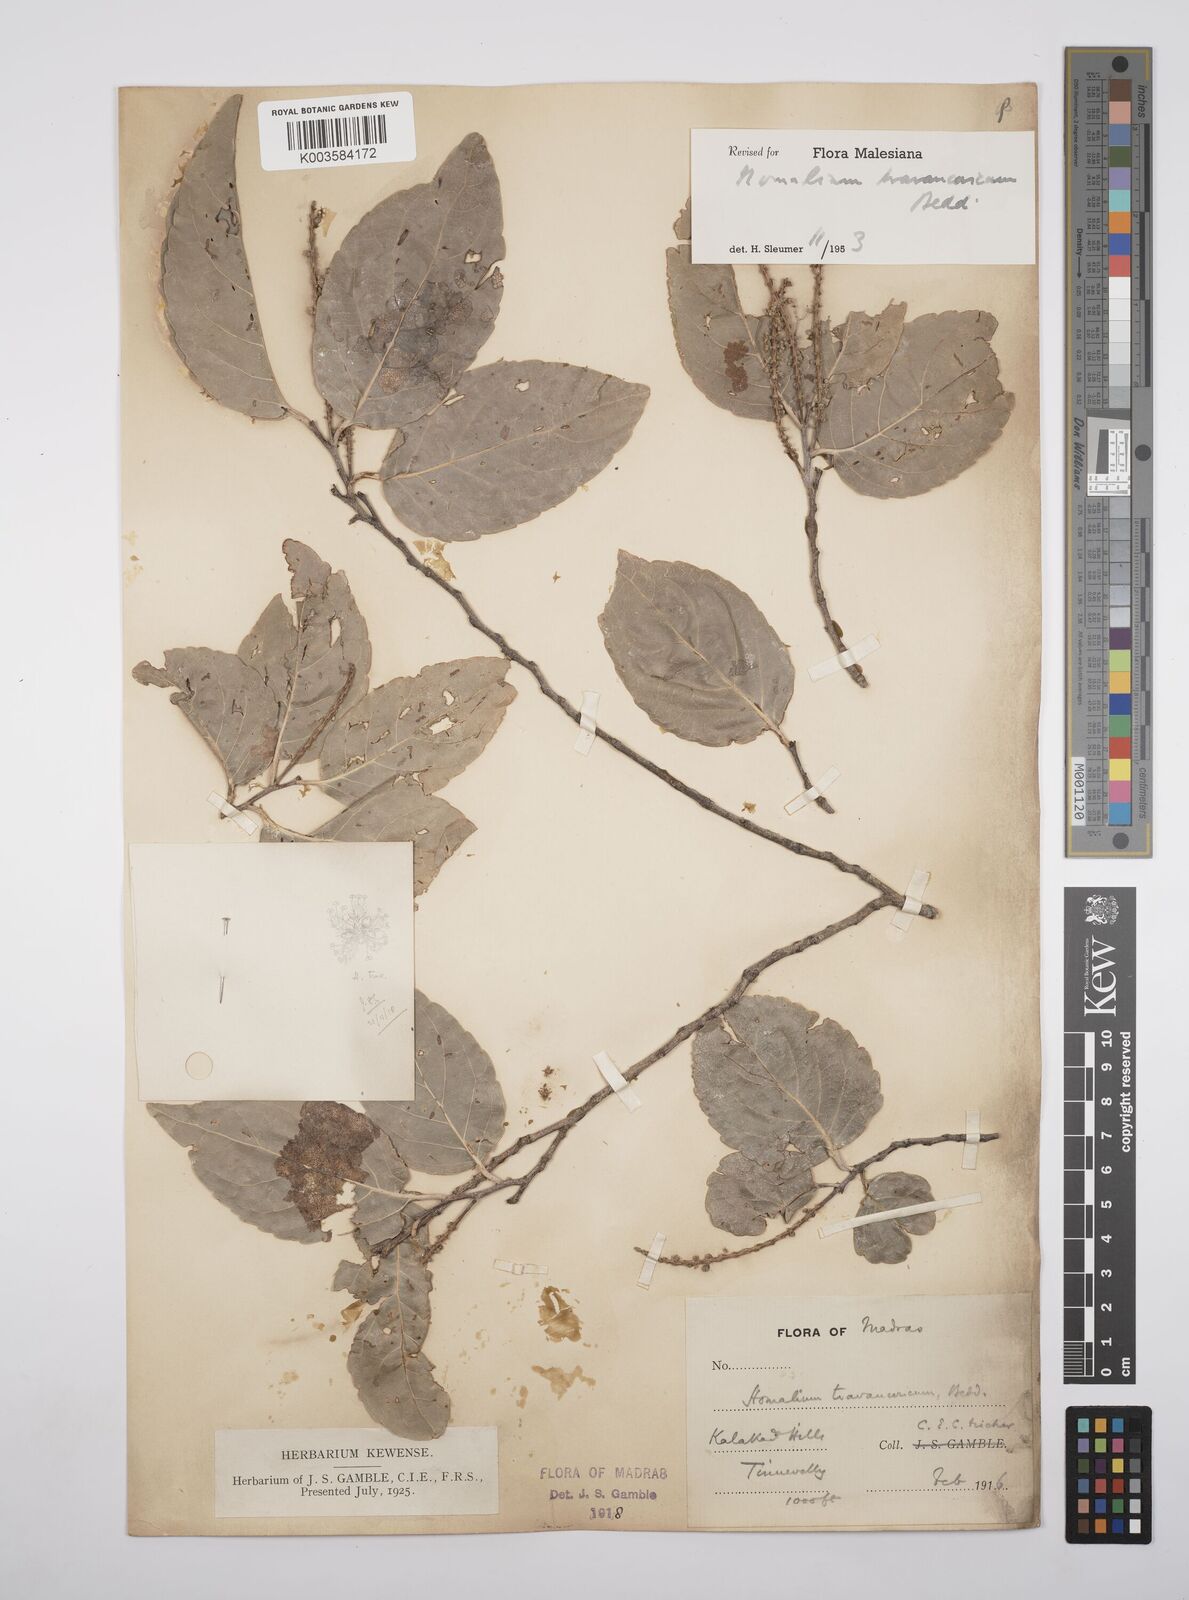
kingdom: Plantae
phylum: Tracheophyta
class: Magnoliopsida
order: Malpighiales
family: Salicaceae
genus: Homalium
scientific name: Homalium travancoricum
